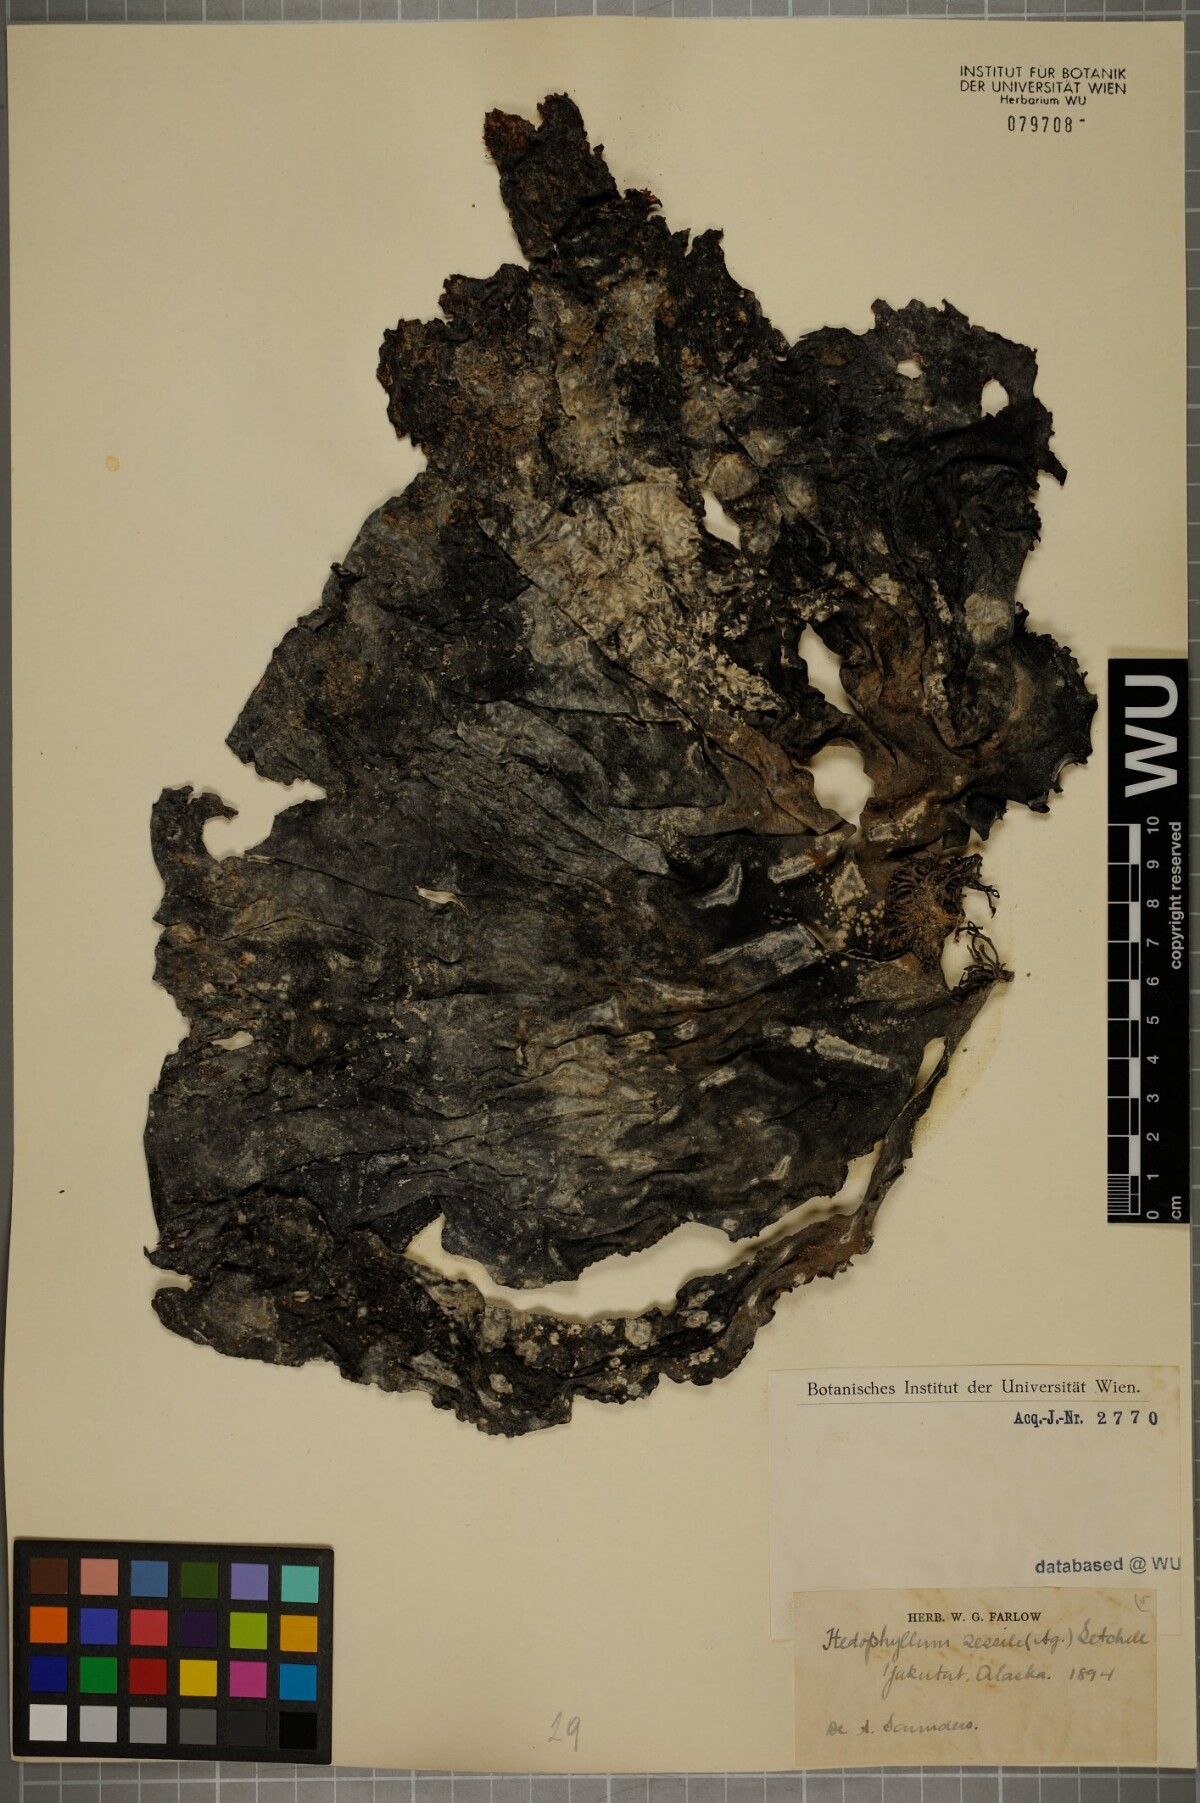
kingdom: Chromista
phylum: Ochrophyta
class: Phaeophyceae
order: Laminariales
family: Laminariaceae
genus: Hedophyllum
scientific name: Hedophyllum sessile
